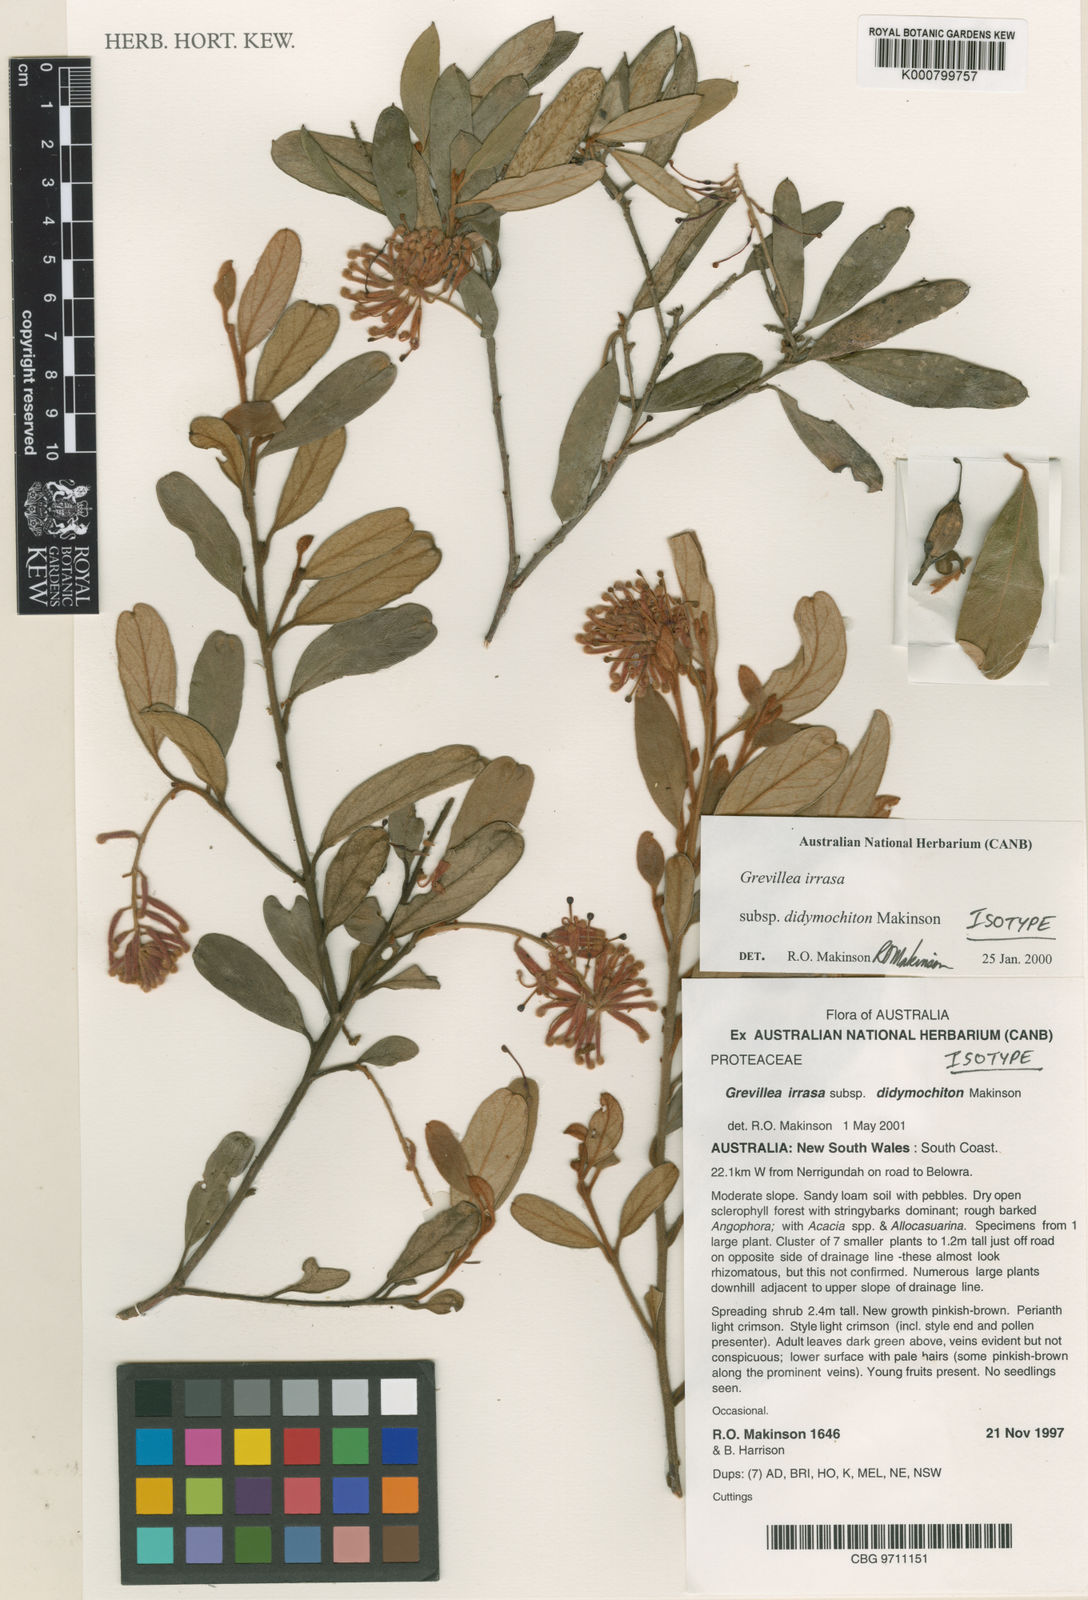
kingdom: Plantae
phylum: Tracheophyta
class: Magnoliopsida
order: Proteales
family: Proteaceae
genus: Grevillea
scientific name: Grevillea irrasa
